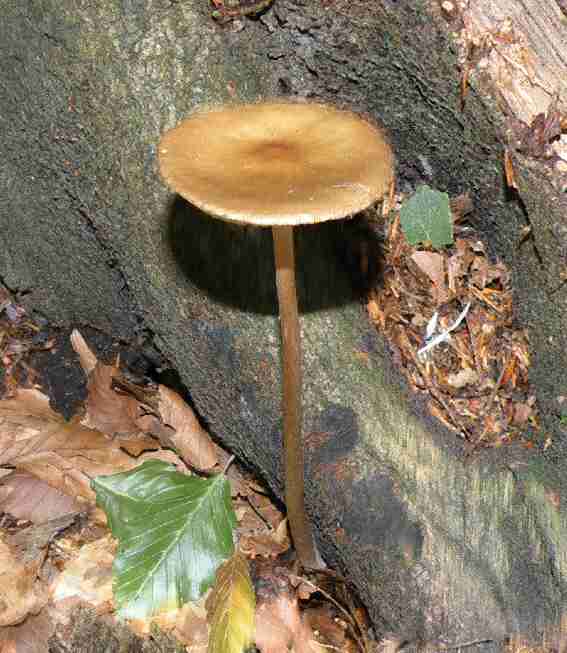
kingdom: Fungi
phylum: Basidiomycota
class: Agaricomycetes
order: Agaricales
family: Physalacriaceae
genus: Hymenopellis
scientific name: Hymenopellis radicata
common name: almindelig pælerodshat
